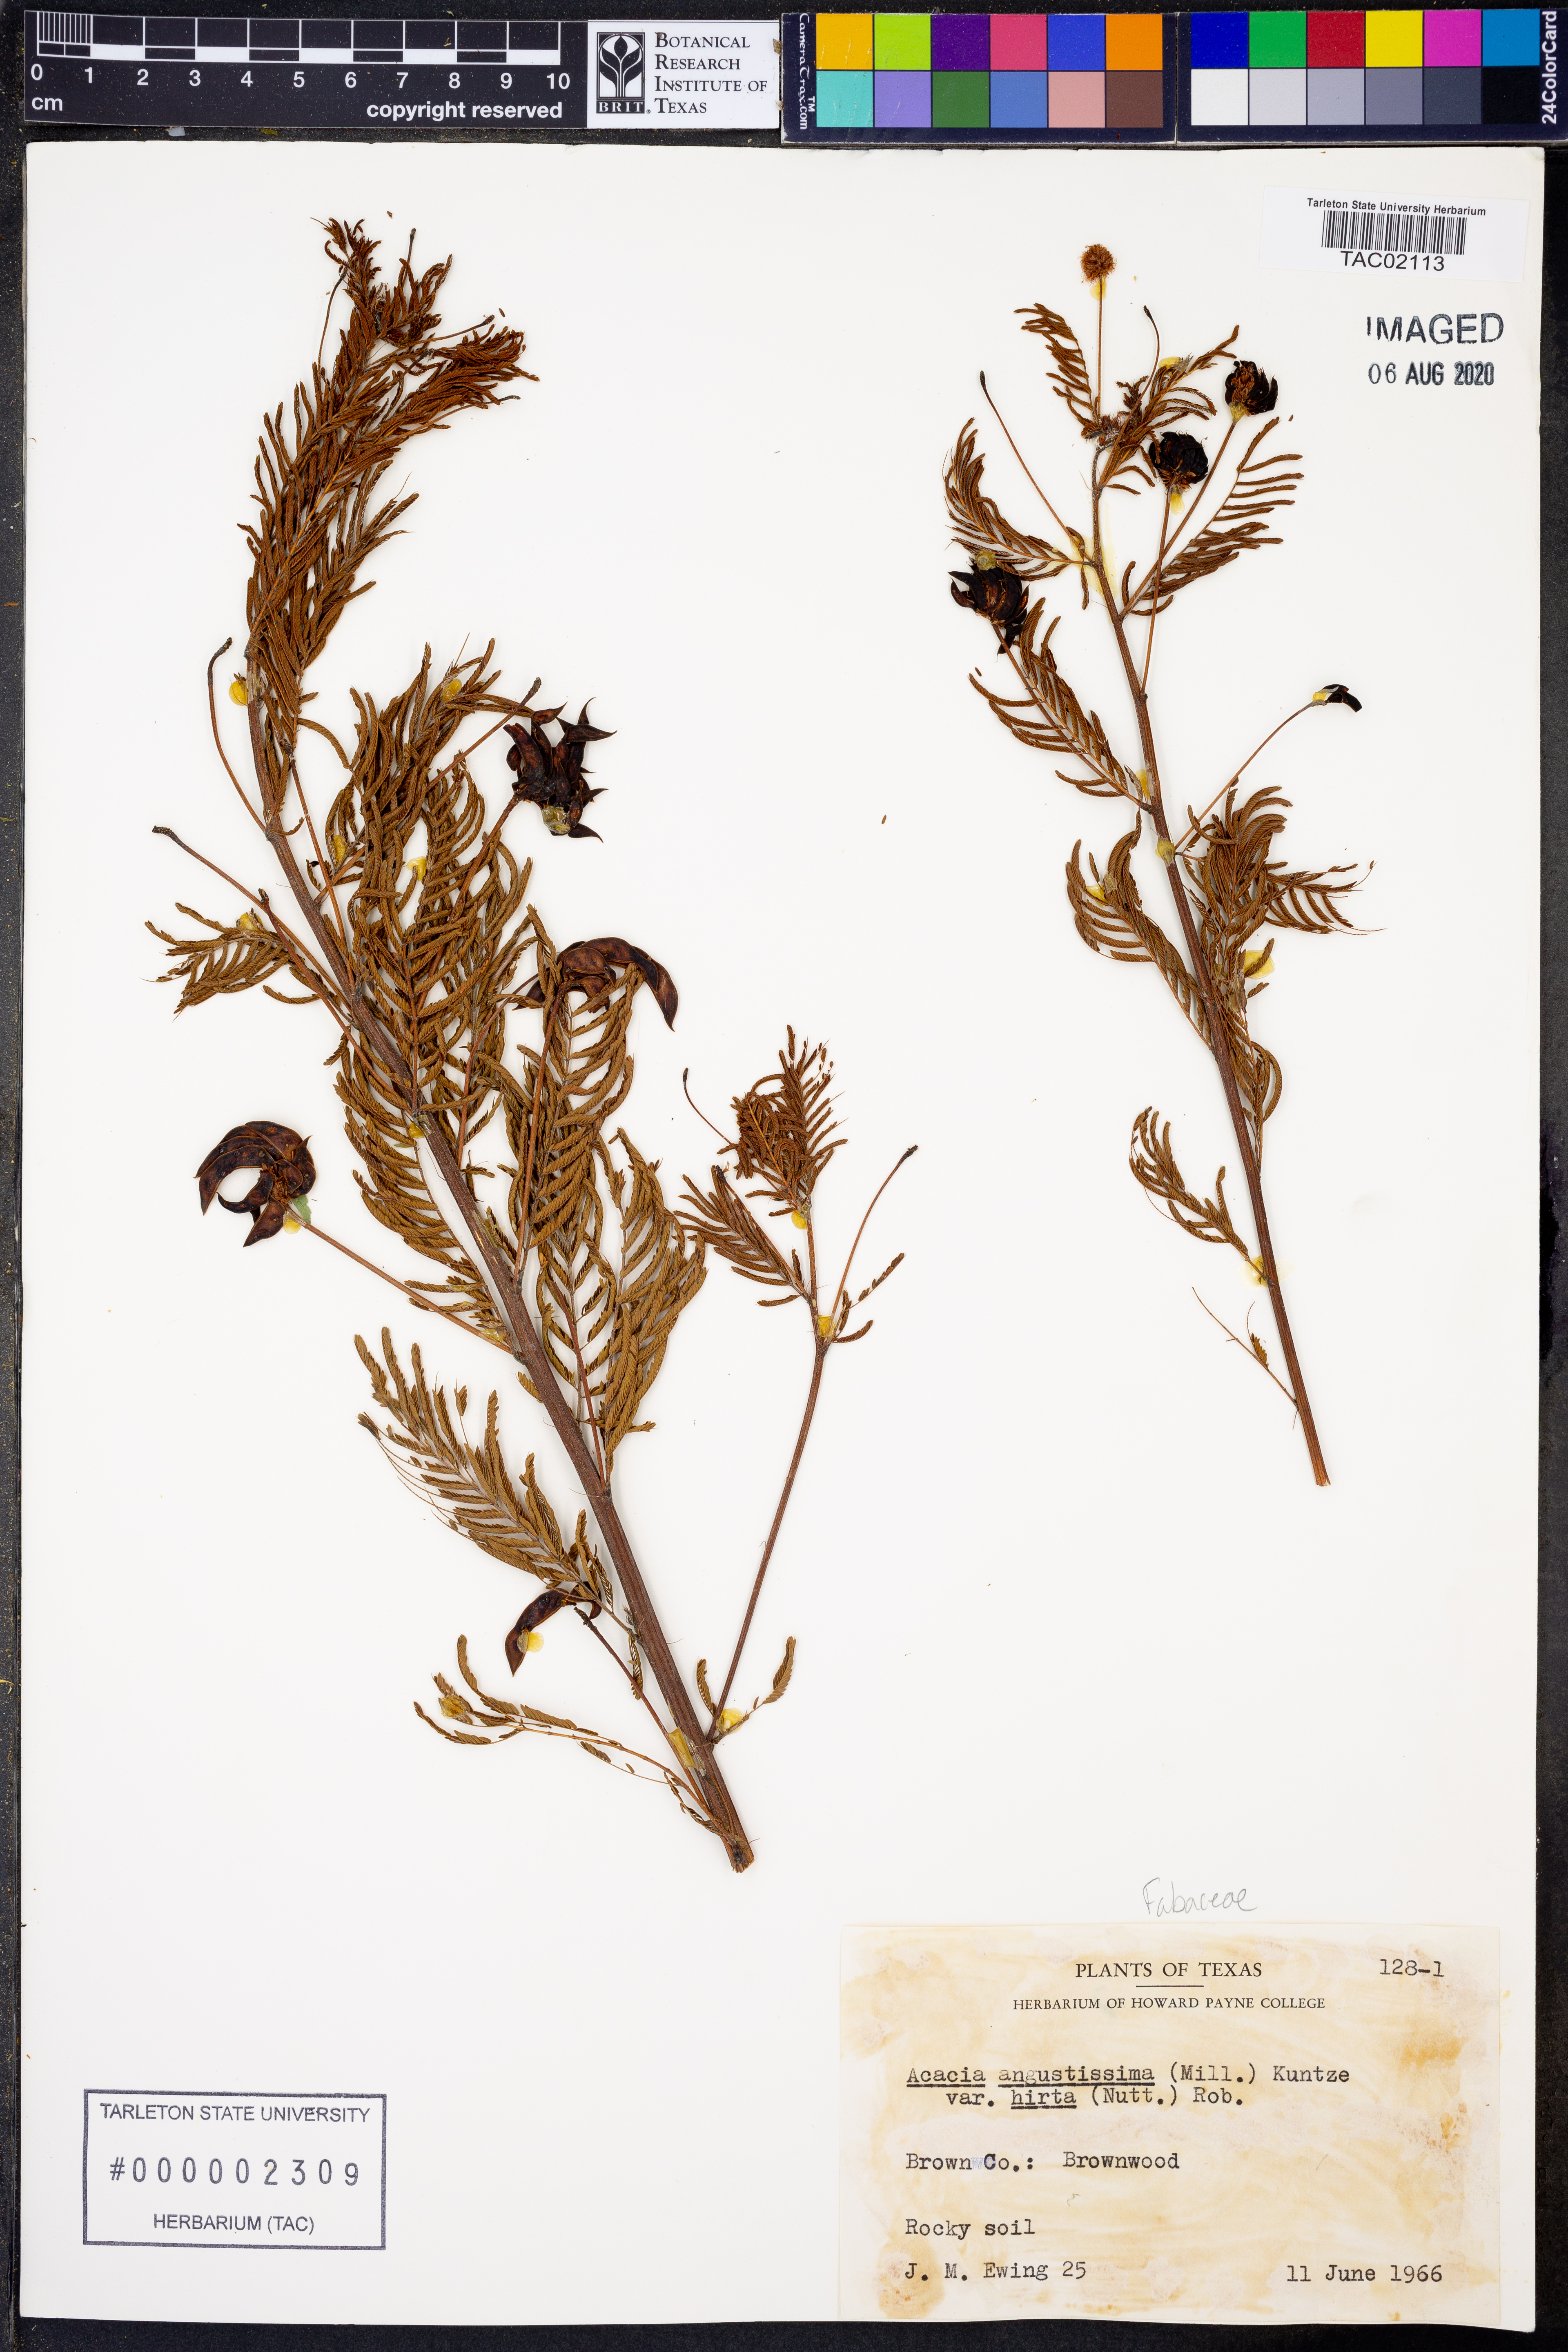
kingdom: Plantae
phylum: Tracheophyta
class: Magnoliopsida
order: Fabales
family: Fabaceae
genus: Acaciella
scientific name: Acaciella angustissima
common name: Prairie acacia
